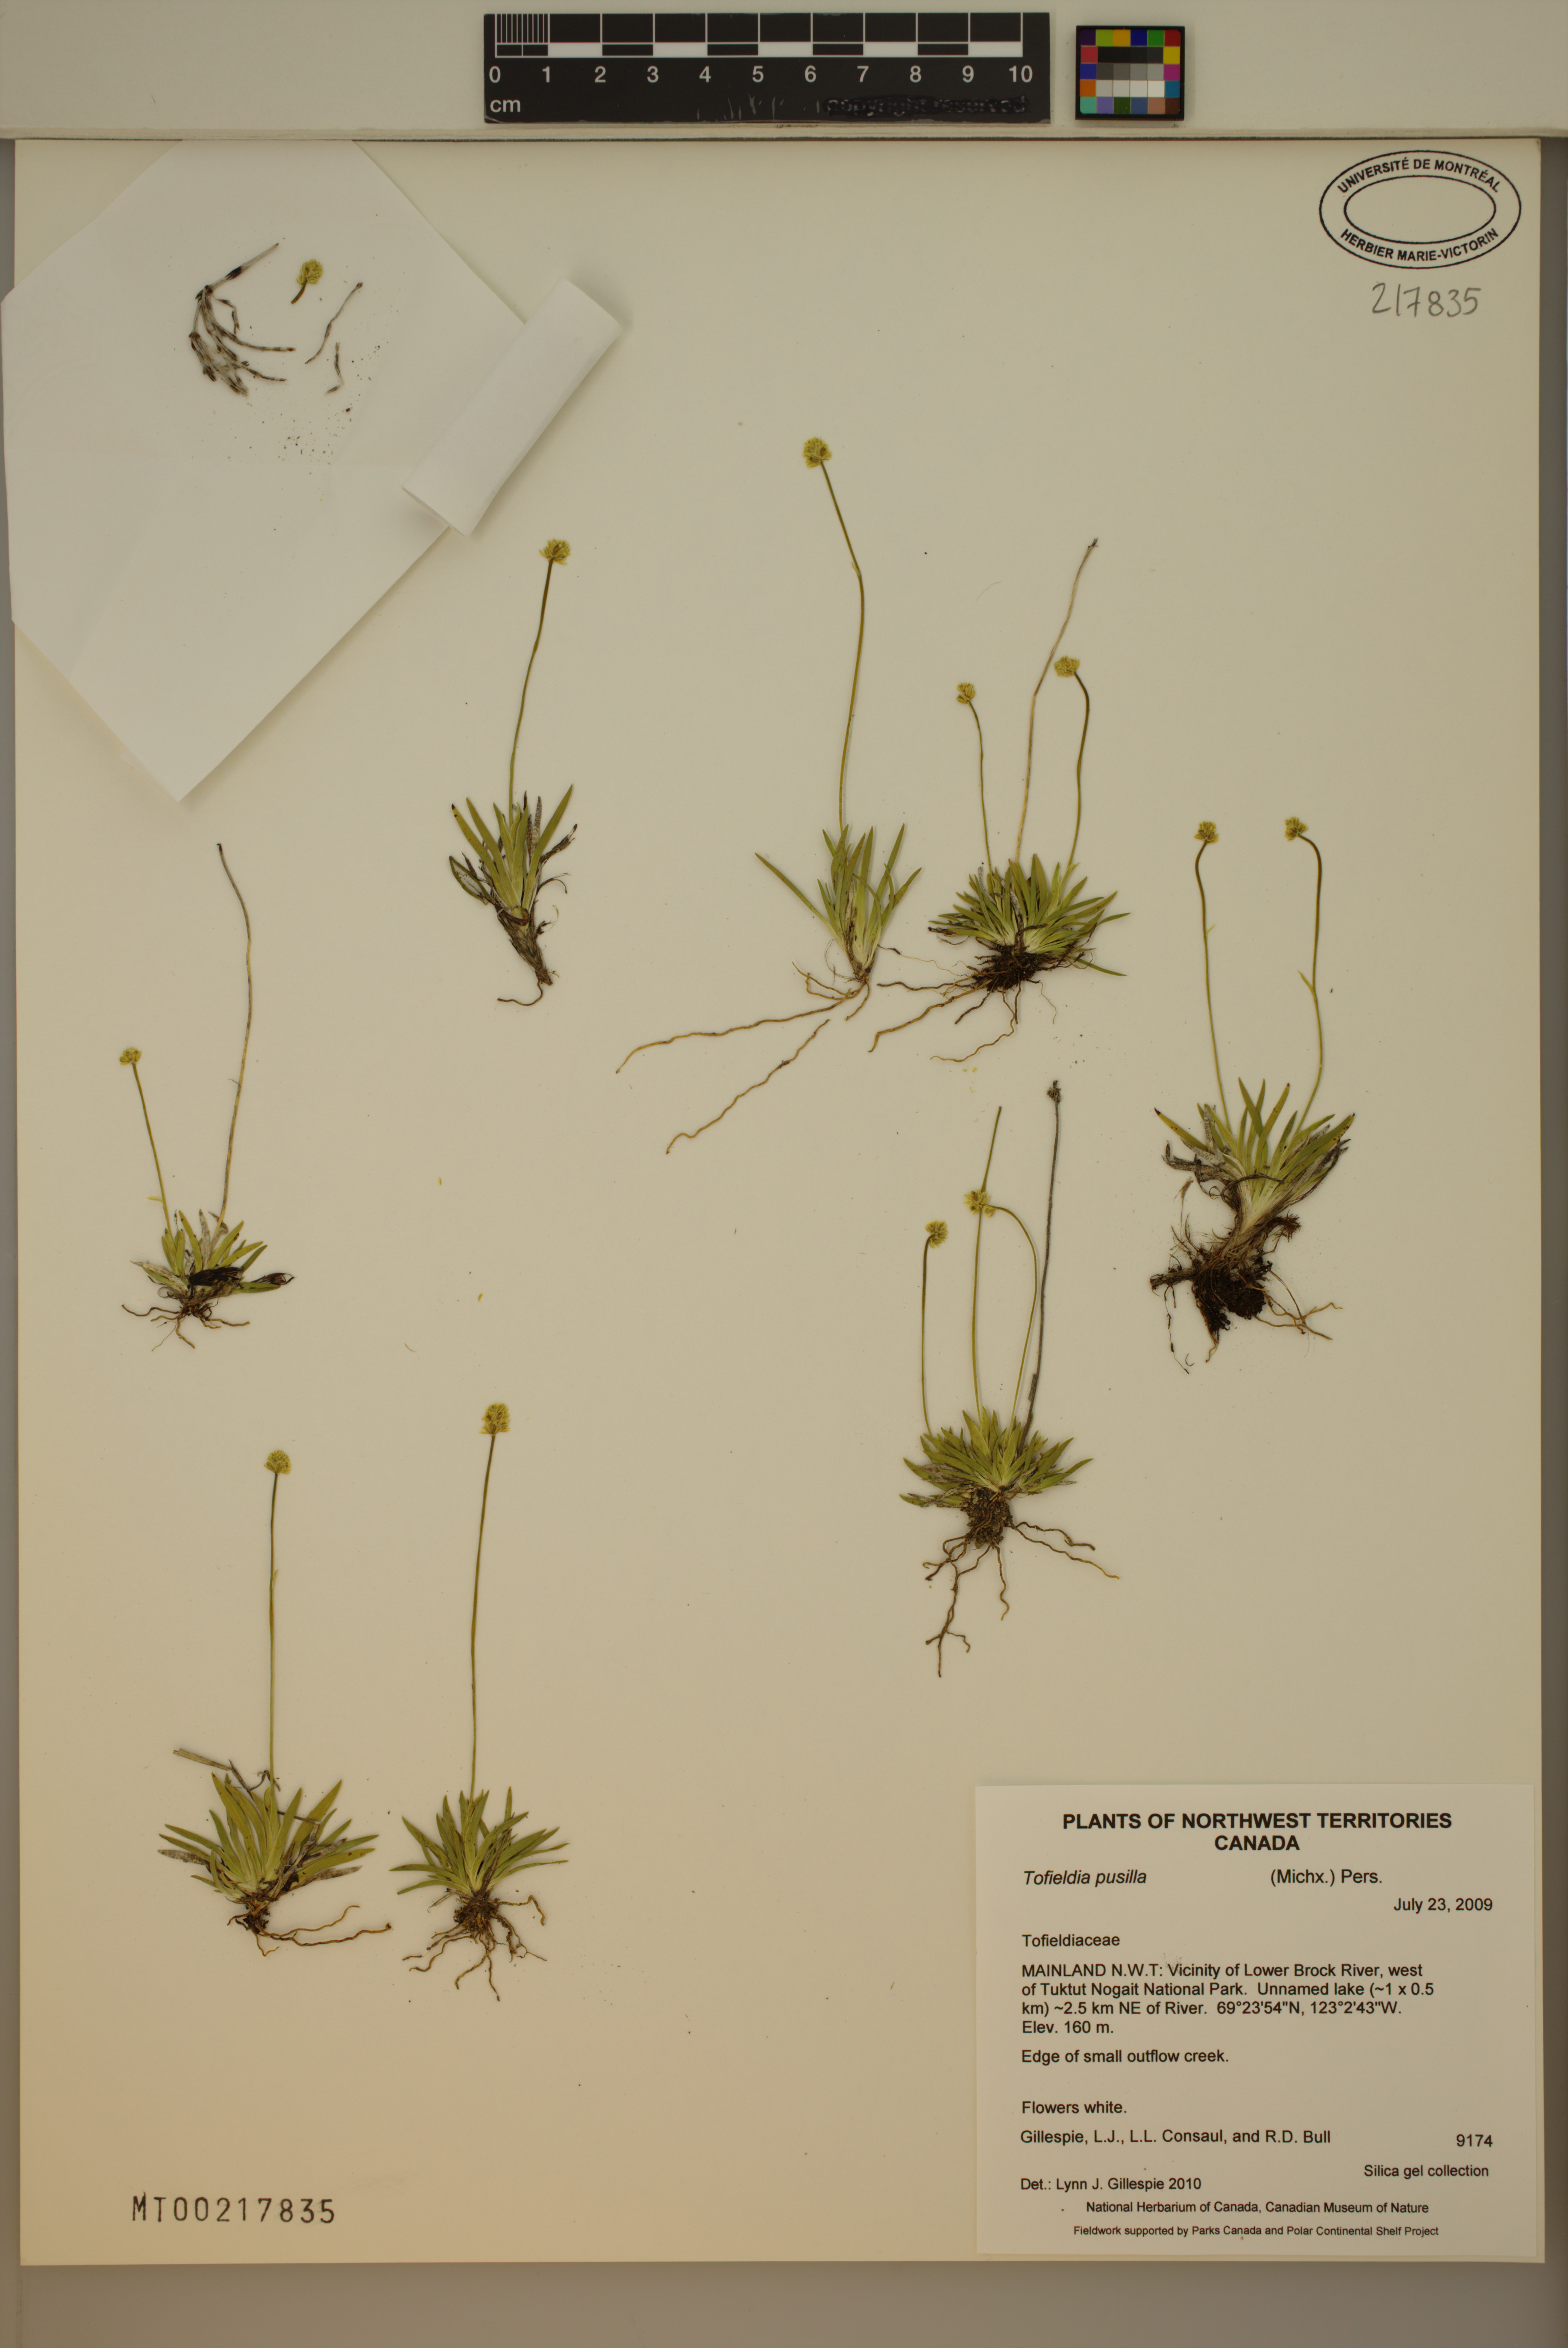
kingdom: Plantae
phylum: Tracheophyta
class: Liliopsida
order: Alismatales
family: Tofieldiaceae
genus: Tofieldia
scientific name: Tofieldia pusilla
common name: Scottish false asphodel
